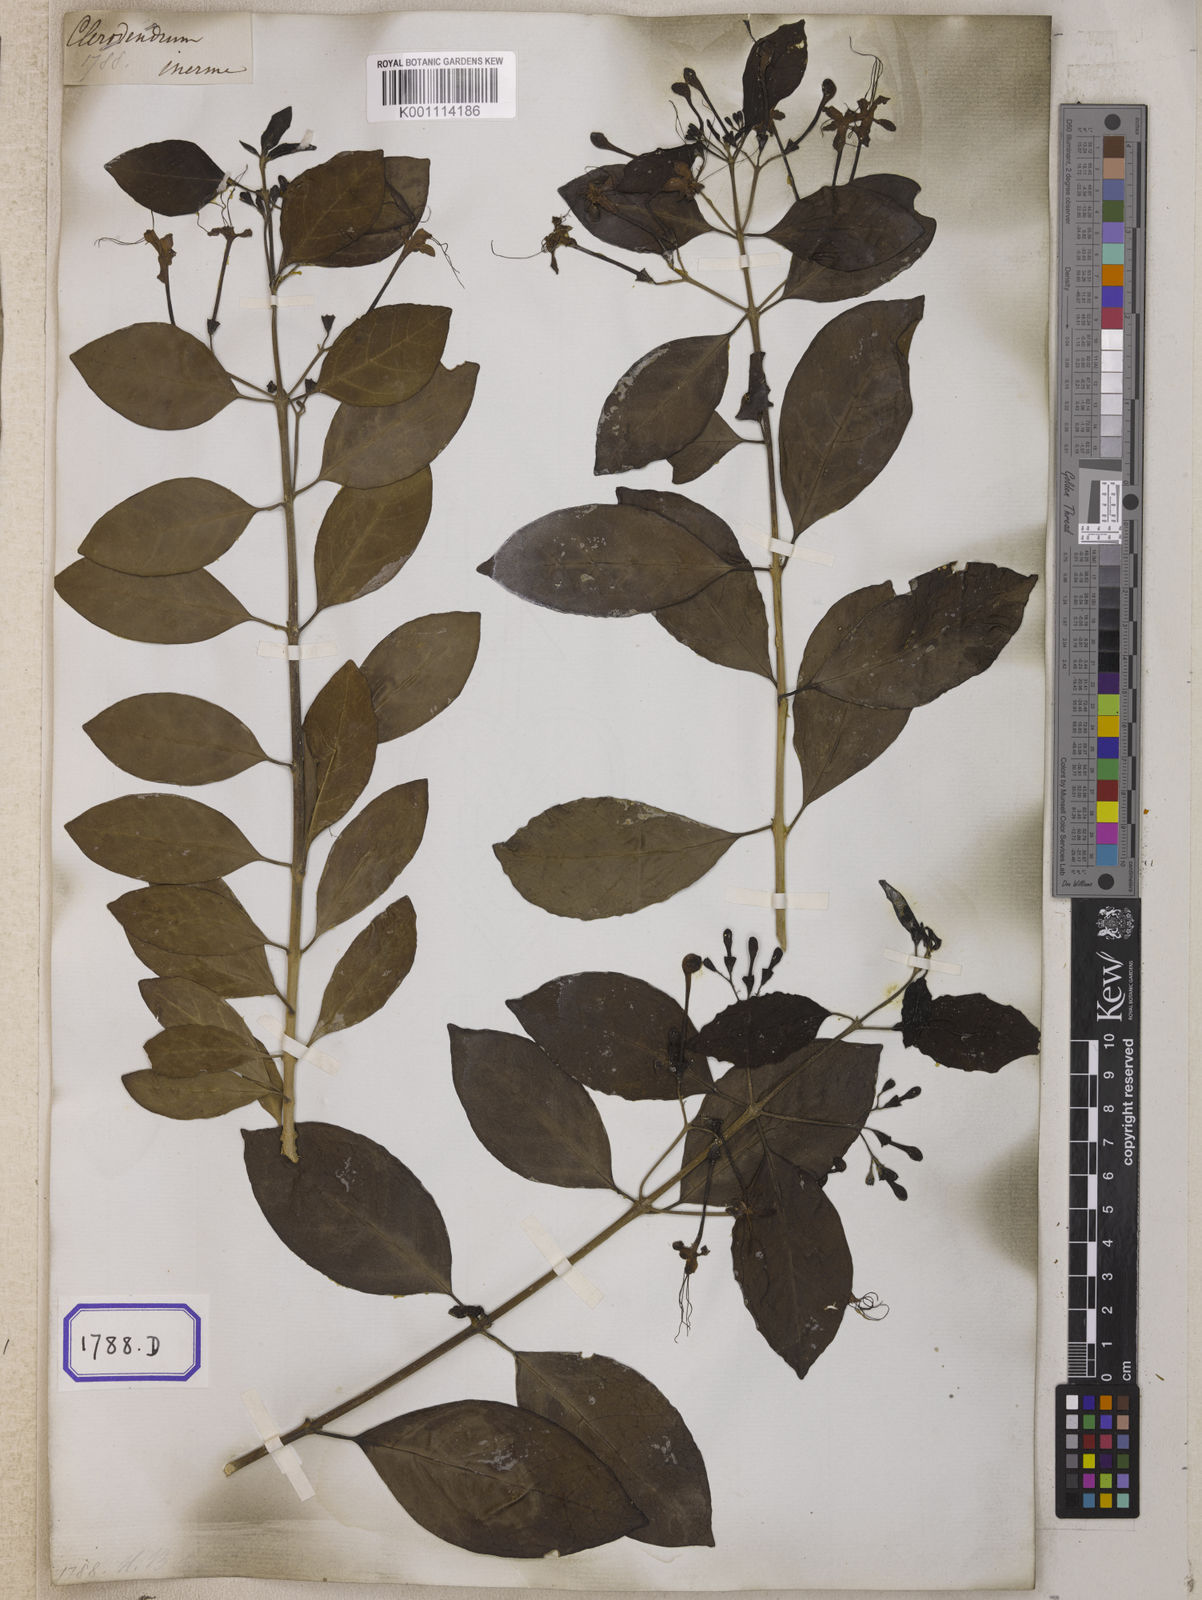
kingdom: Plantae
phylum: Tracheophyta
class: Magnoliopsida
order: Lamiales
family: Lamiaceae
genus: Clerodendrum
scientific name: Clerodendrum
